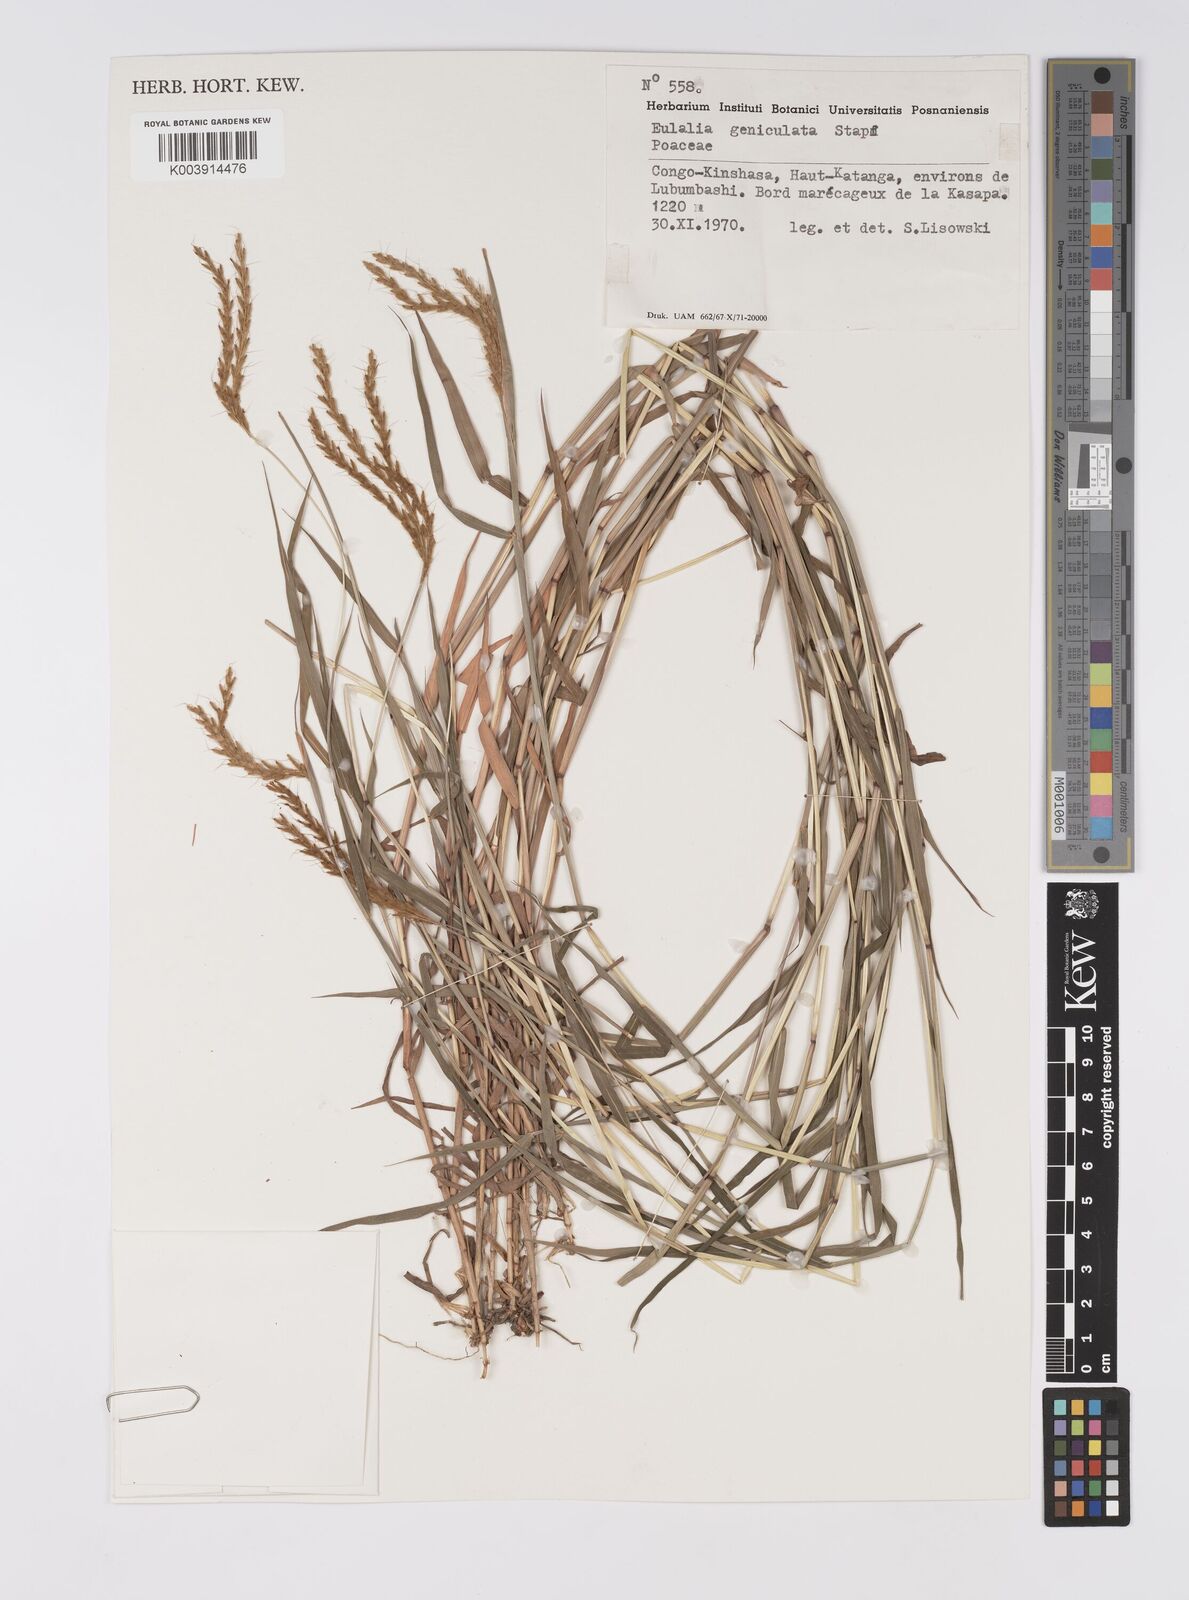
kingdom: Plantae
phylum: Tracheophyta
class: Liliopsida
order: Poales
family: Poaceae
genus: Eulalia
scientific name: Eulalia aurea
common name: Silky browntop
